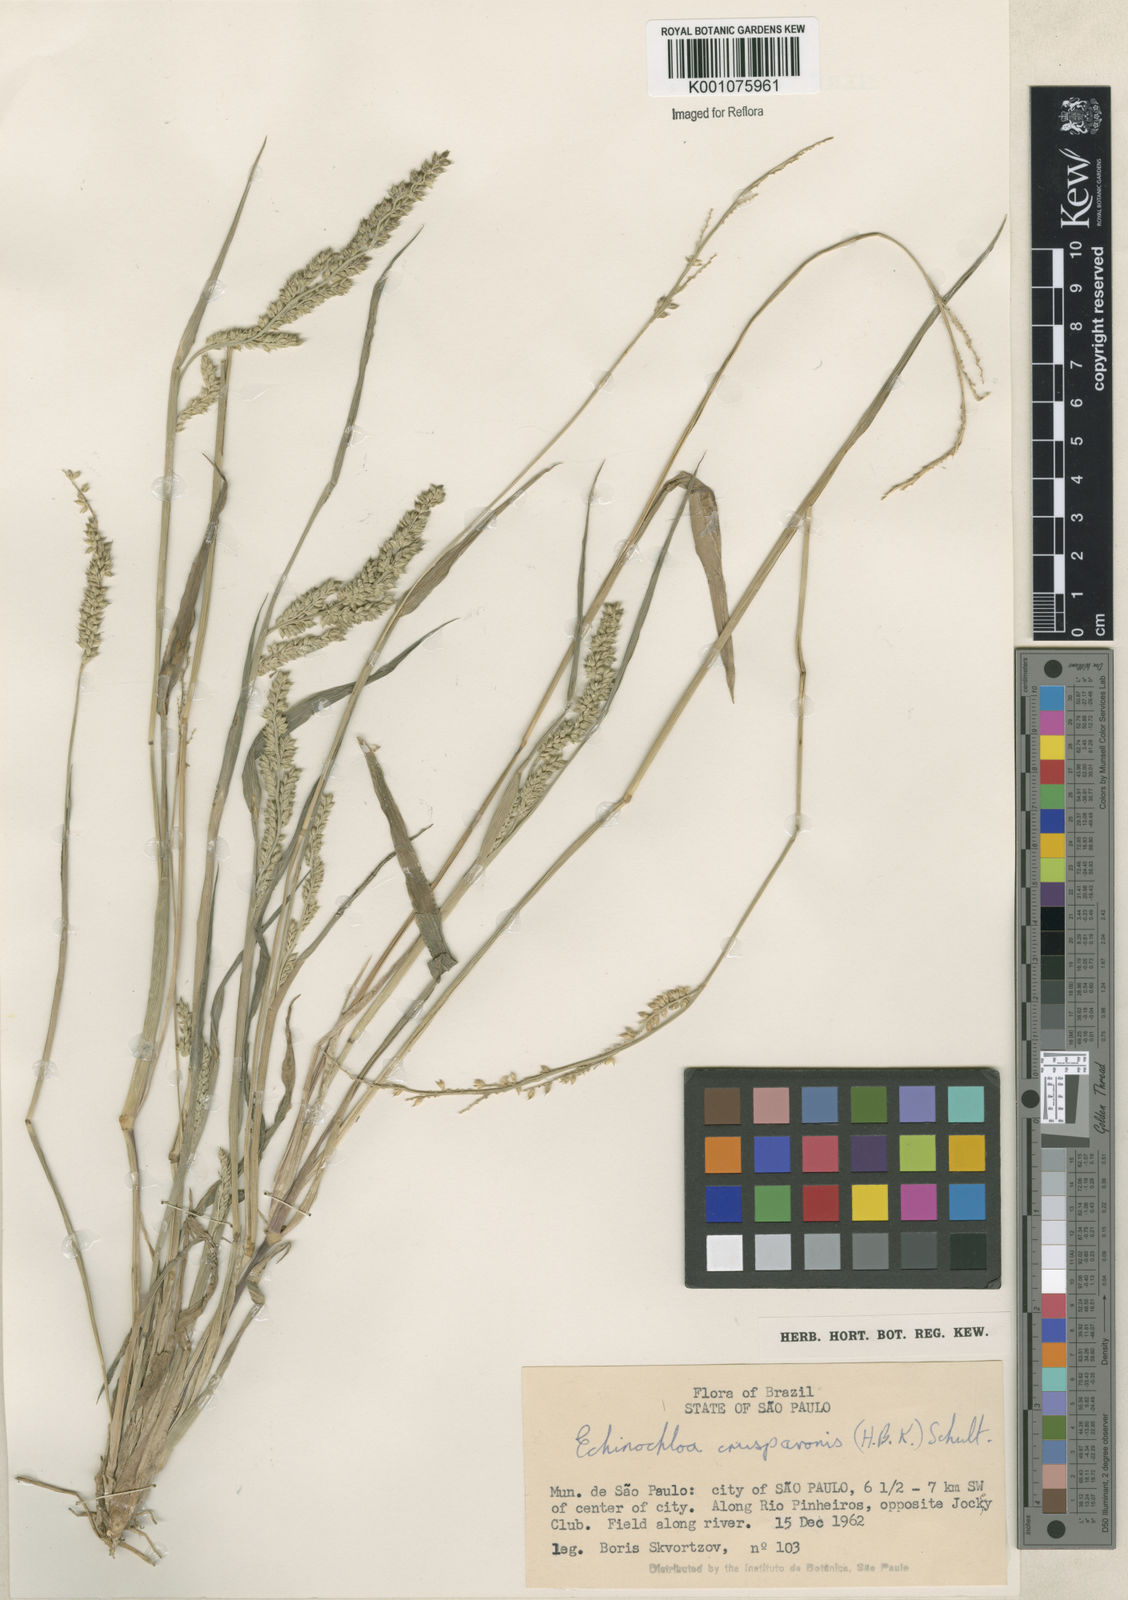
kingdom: Plantae
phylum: Tracheophyta
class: Liliopsida
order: Poales
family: Poaceae
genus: Echinochloa
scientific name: Echinochloa crus-pavonis
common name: Gulf cockspur grass
